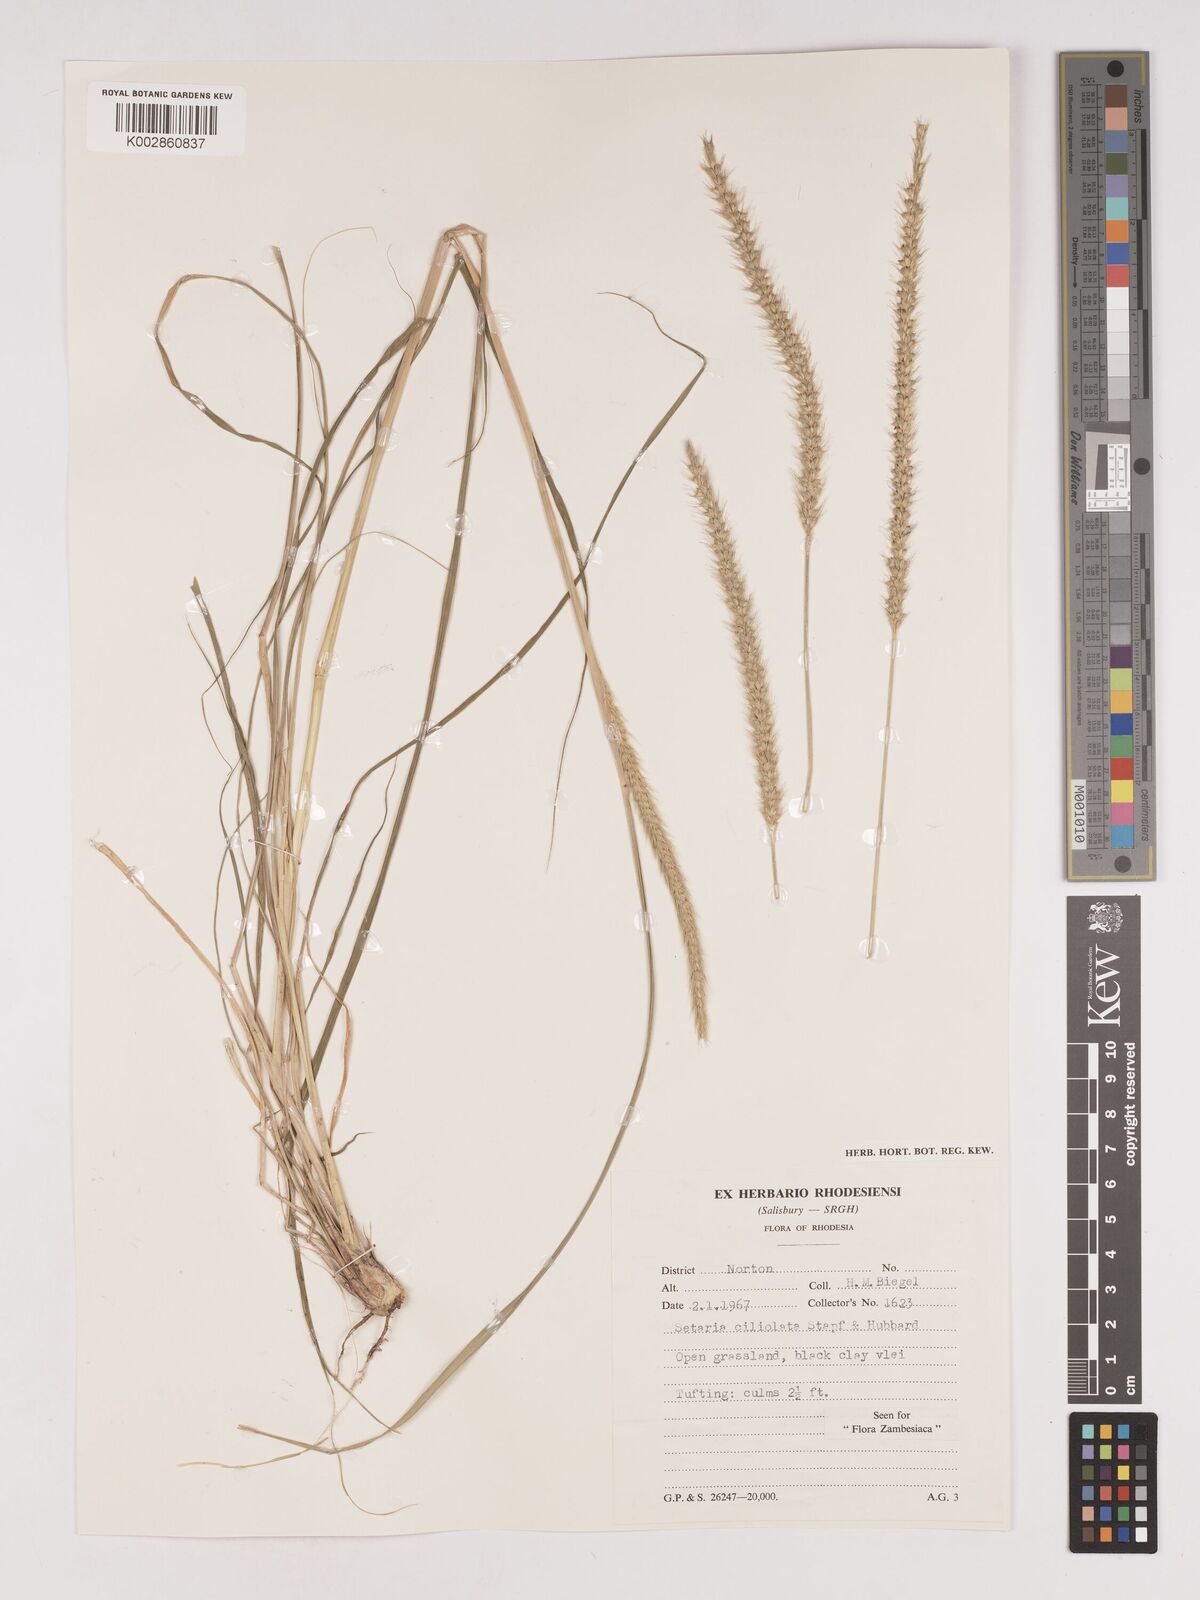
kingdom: Plantae
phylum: Tracheophyta
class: Liliopsida
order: Poales
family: Poaceae
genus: Setaria
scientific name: Setaria incrassata
